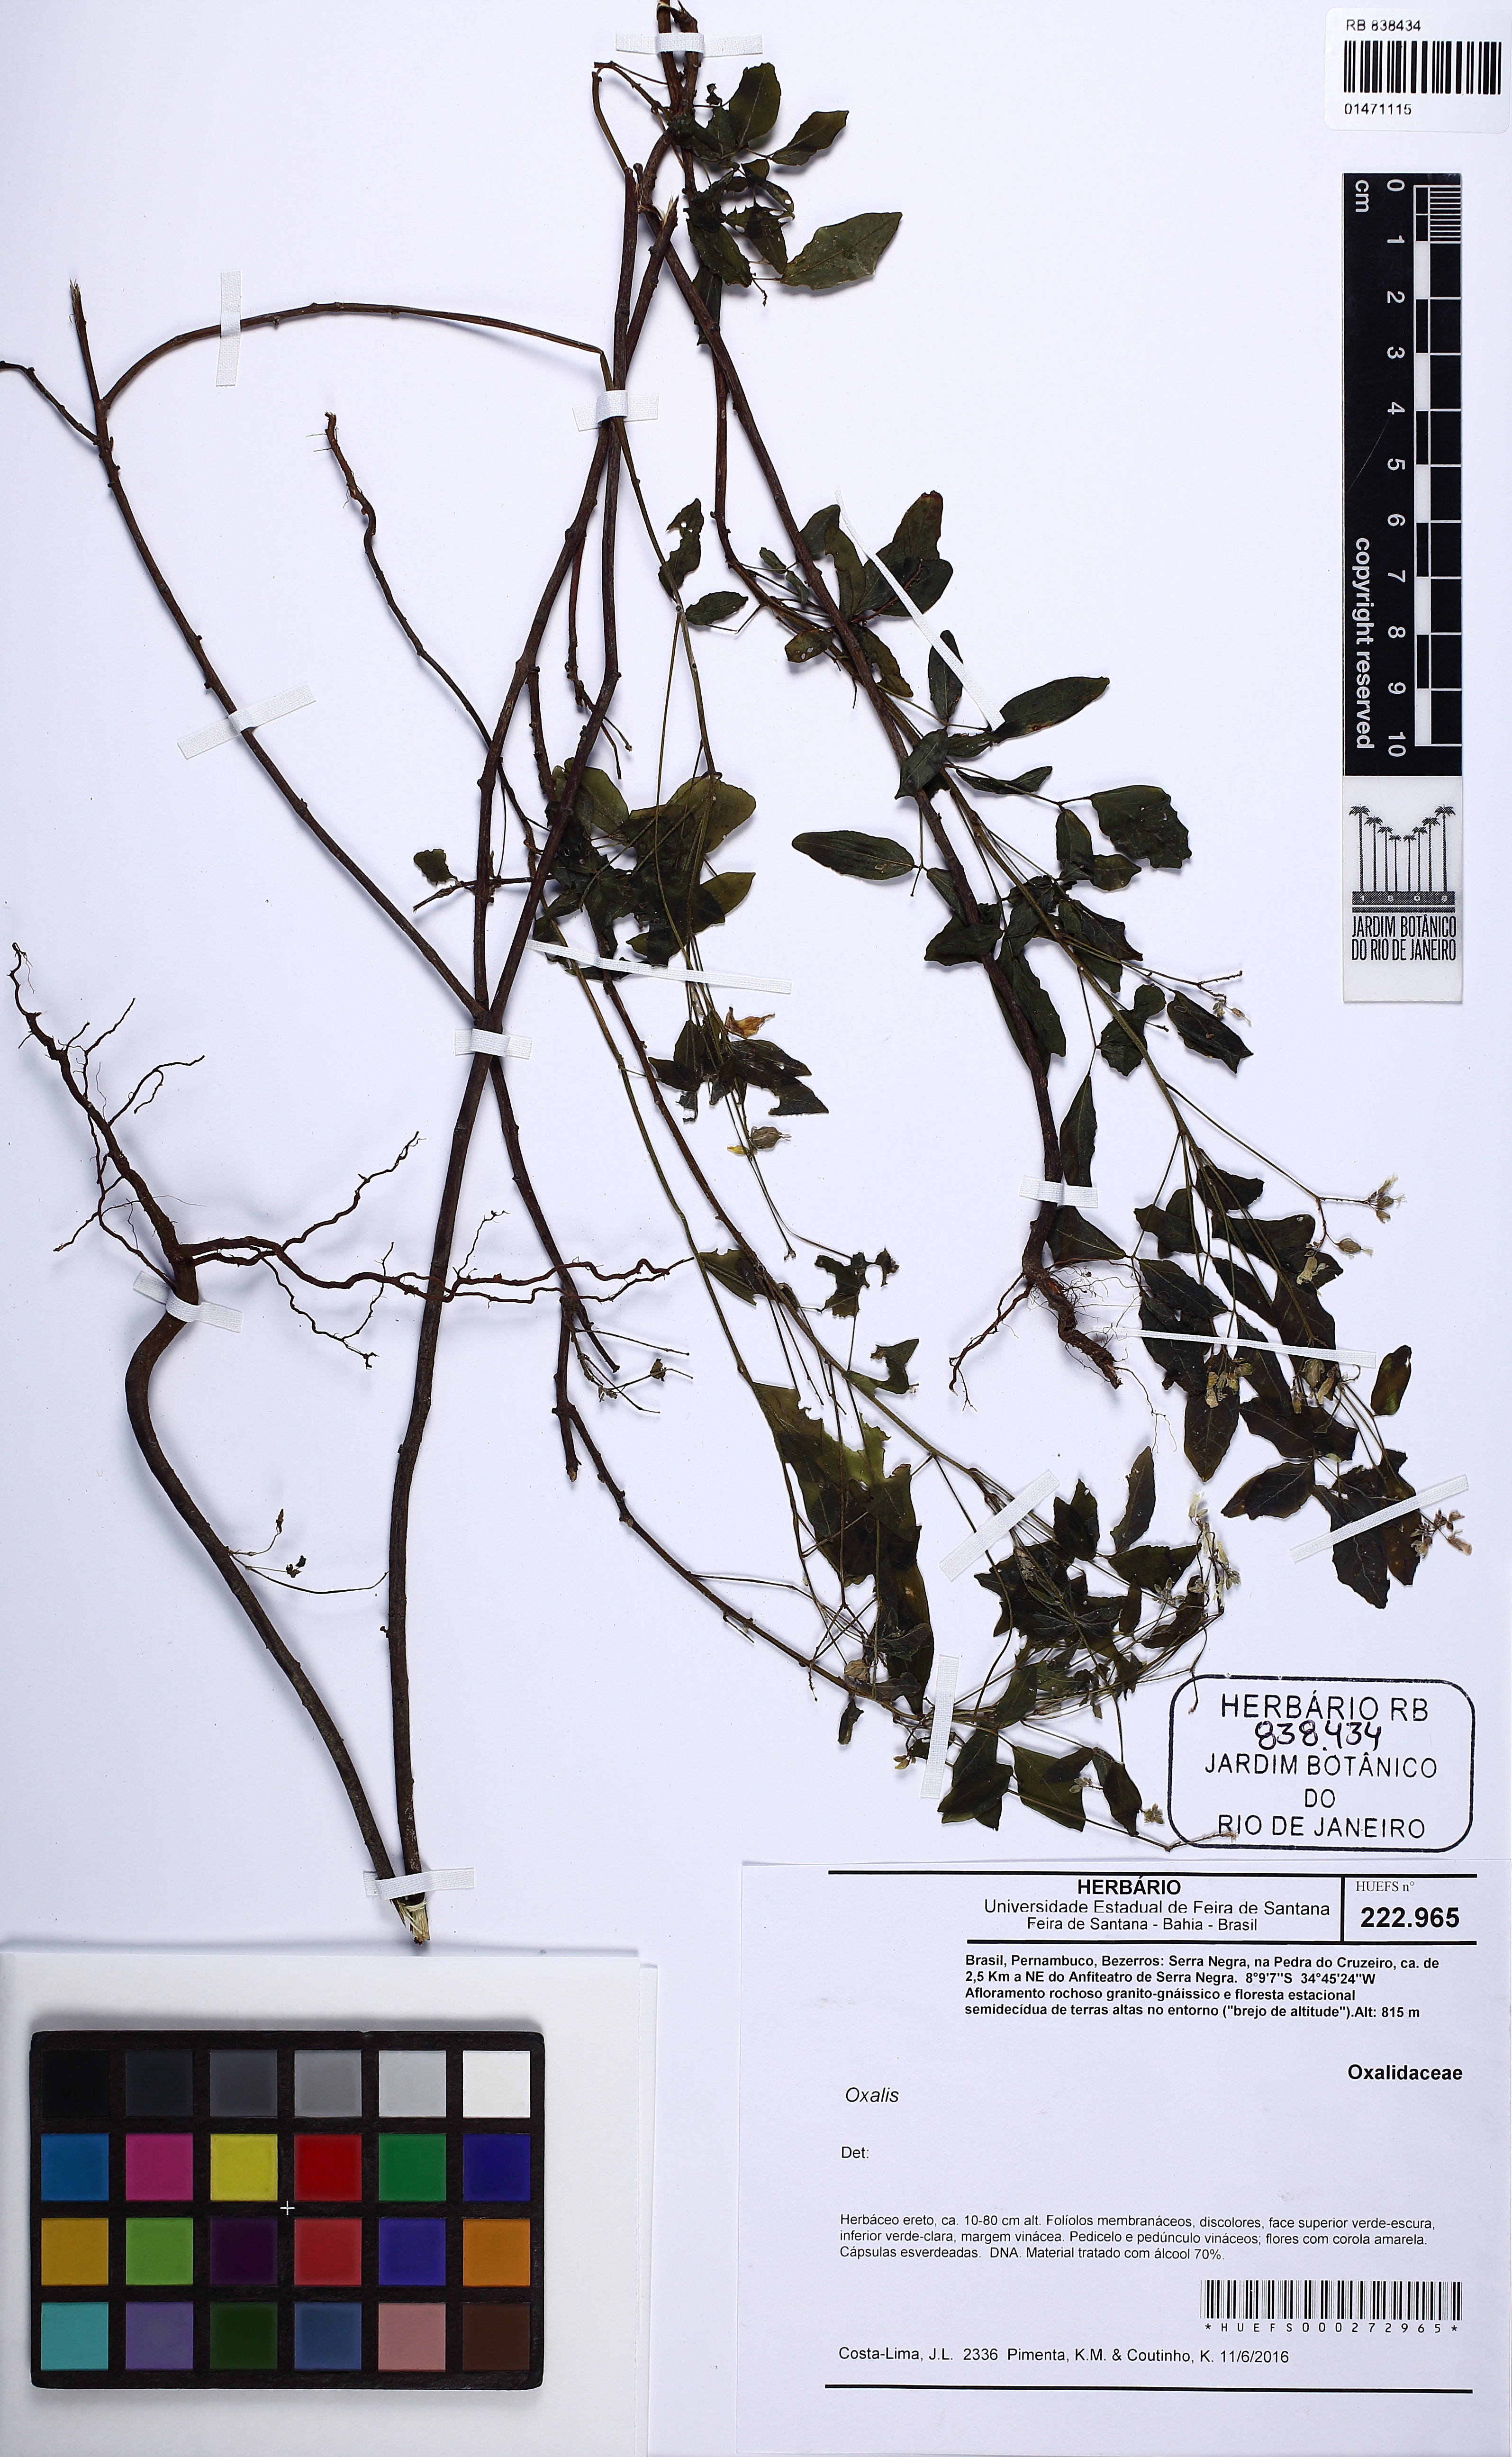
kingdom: Plantae
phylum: Tracheophyta
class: Magnoliopsida
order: Myrtales
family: Vochysiaceae
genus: Vochysia
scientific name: Vochysia
